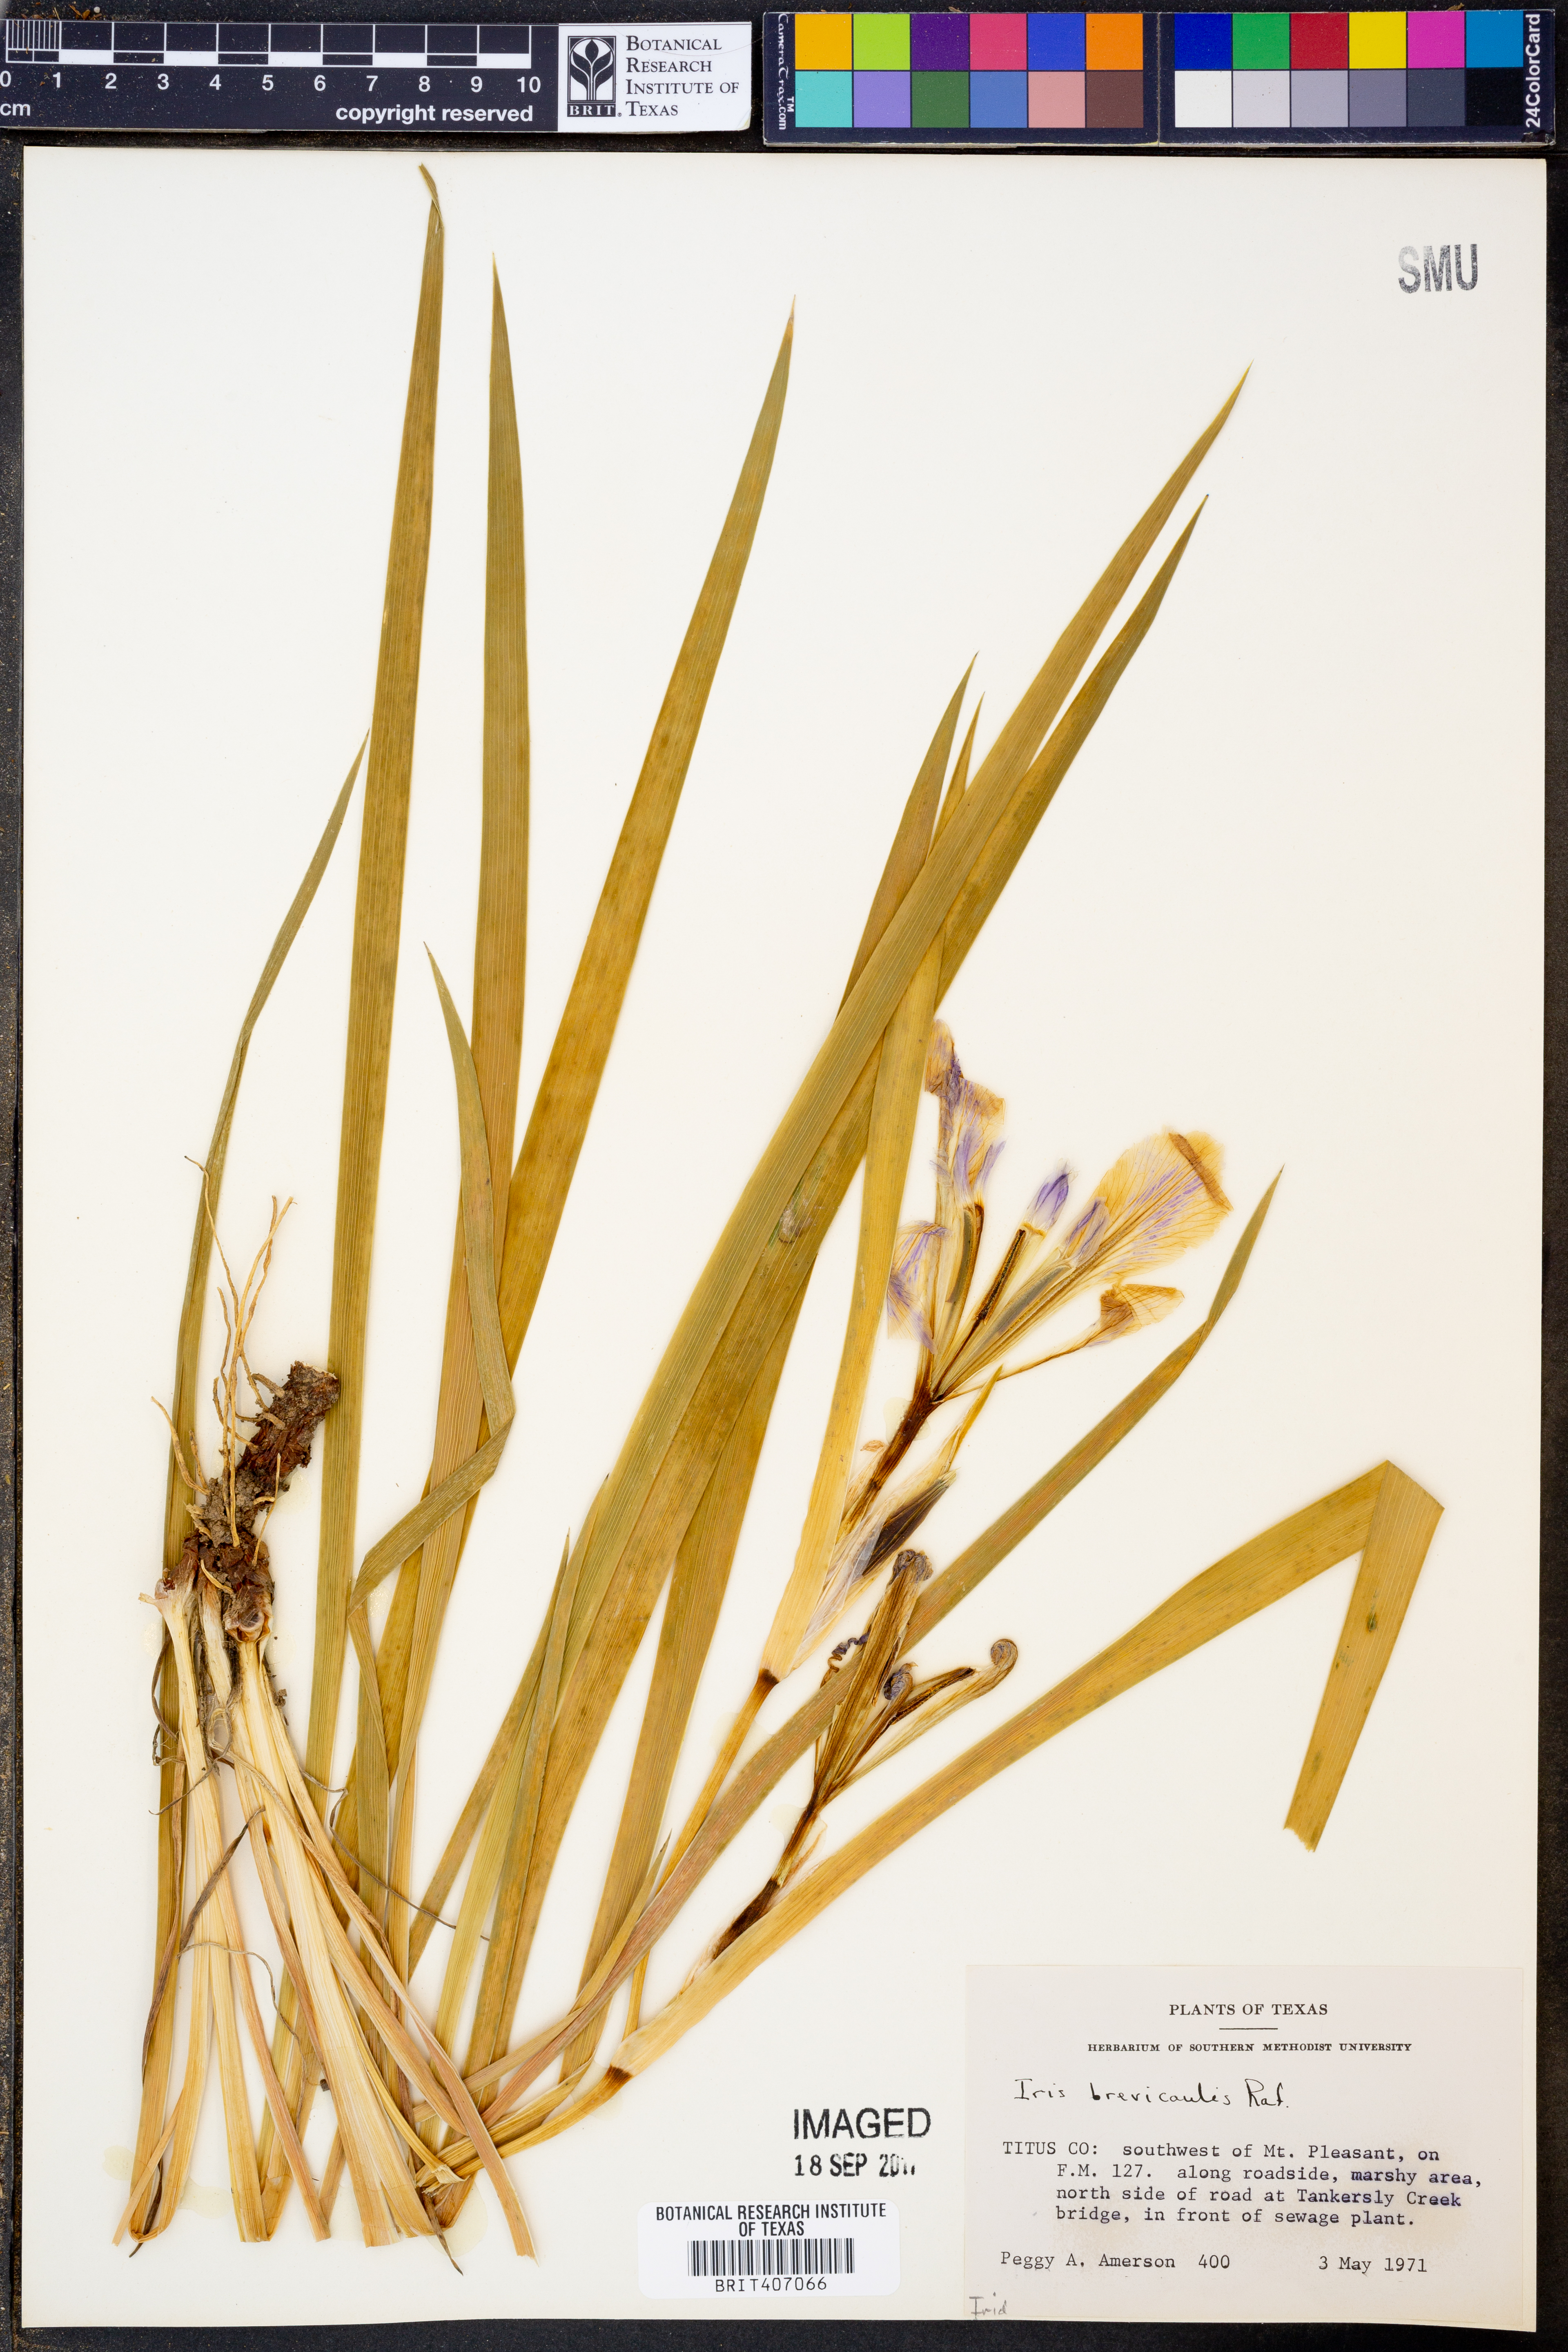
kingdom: Plantae
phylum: Tracheophyta
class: Liliopsida
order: Asparagales
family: Iridaceae
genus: Iris
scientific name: Iris brevicaulis
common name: Zigzag iris
